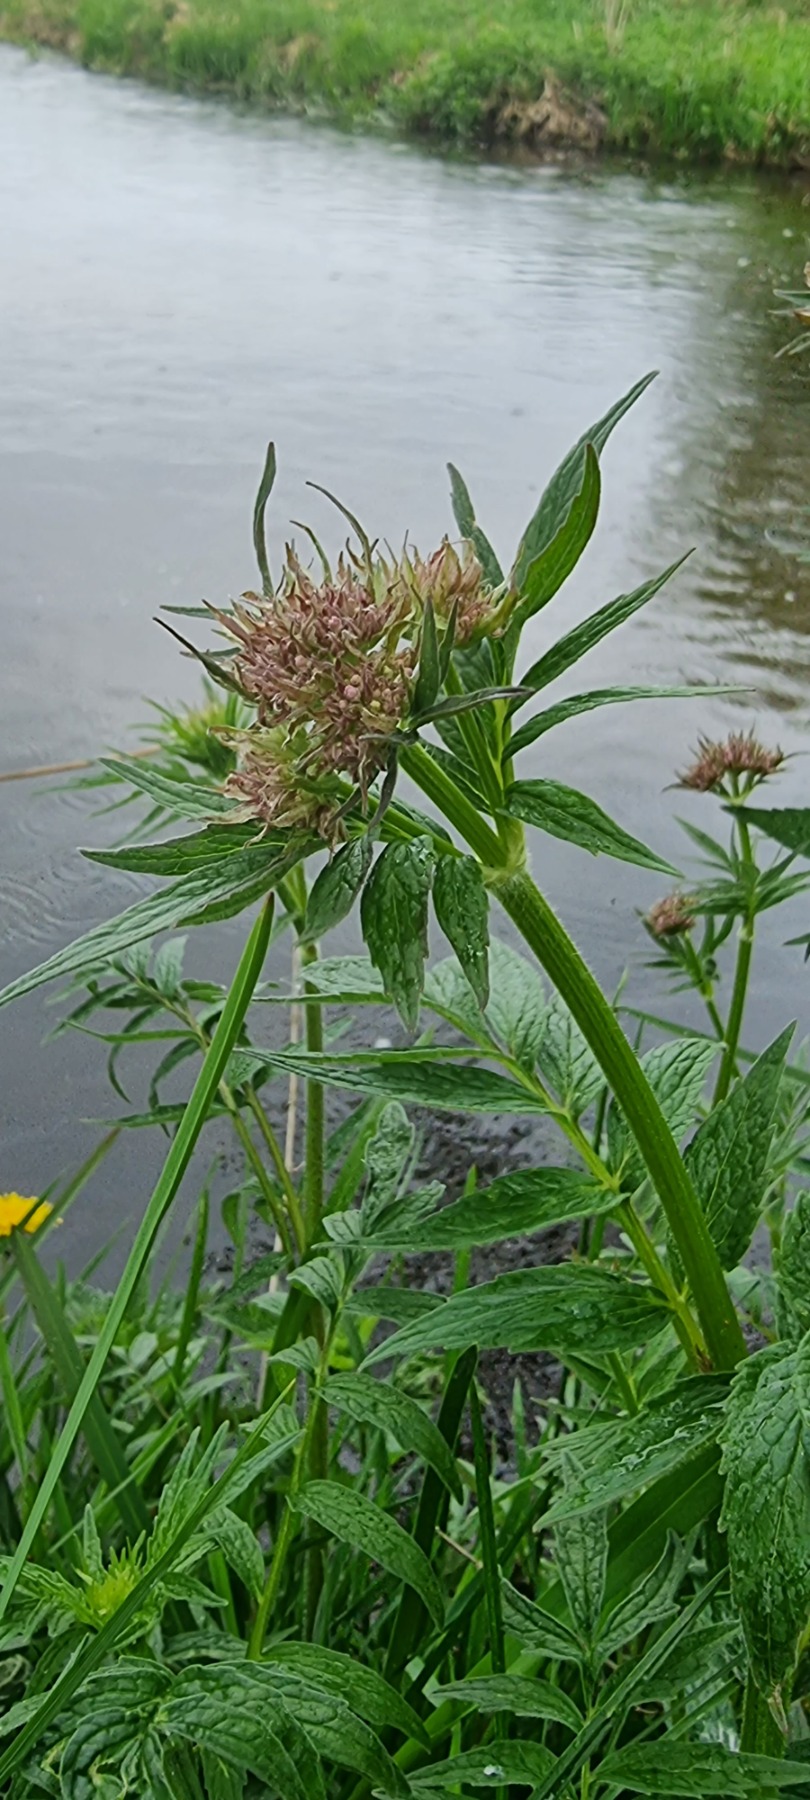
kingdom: Plantae
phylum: Tracheophyta
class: Magnoliopsida
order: Dipsacales
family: Caprifoliaceae
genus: Valeriana
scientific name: Valeriana excelsa
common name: Krybende baldrian
